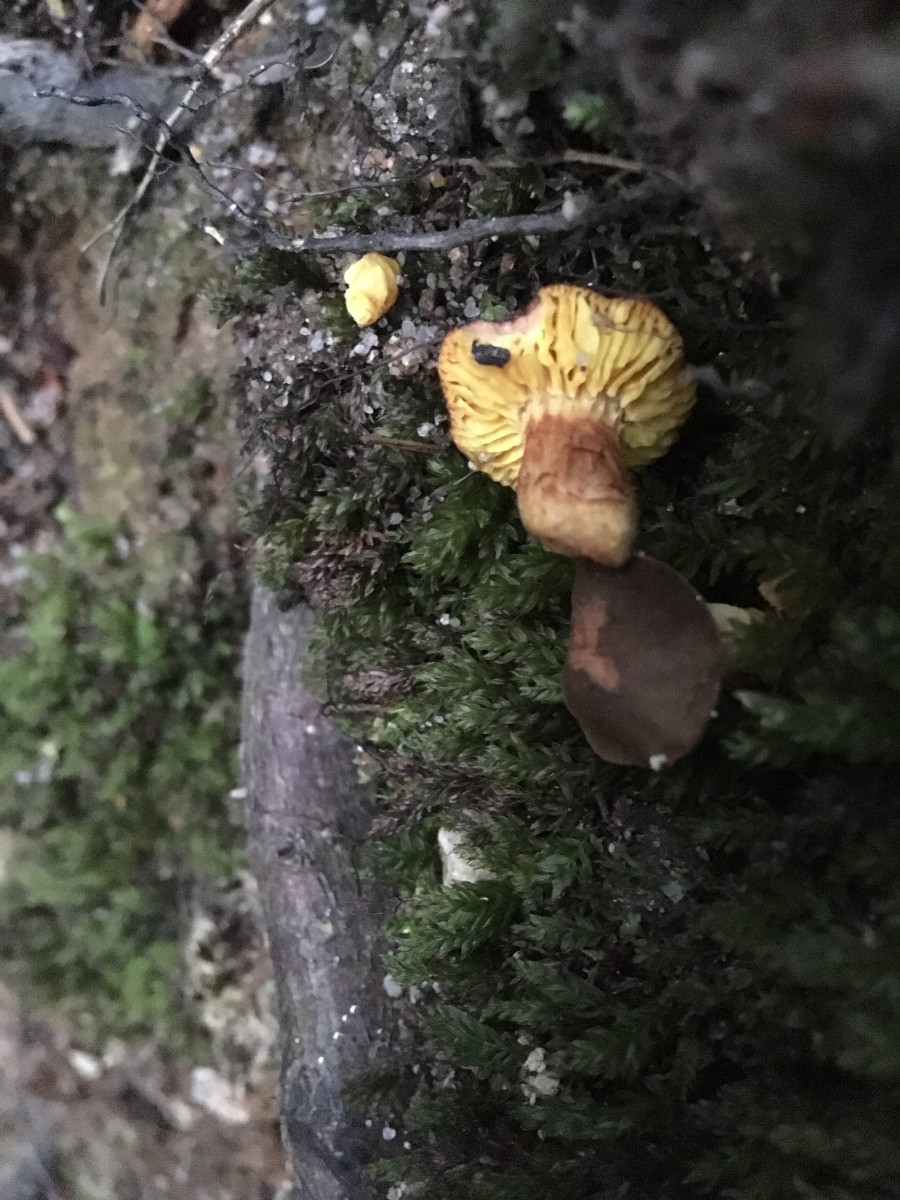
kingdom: Fungi
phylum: Basidiomycota
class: Agaricomycetes
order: Boletales
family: Boletaceae
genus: Phylloporus
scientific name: Phylloporus pelletieri
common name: lamelrørhat
